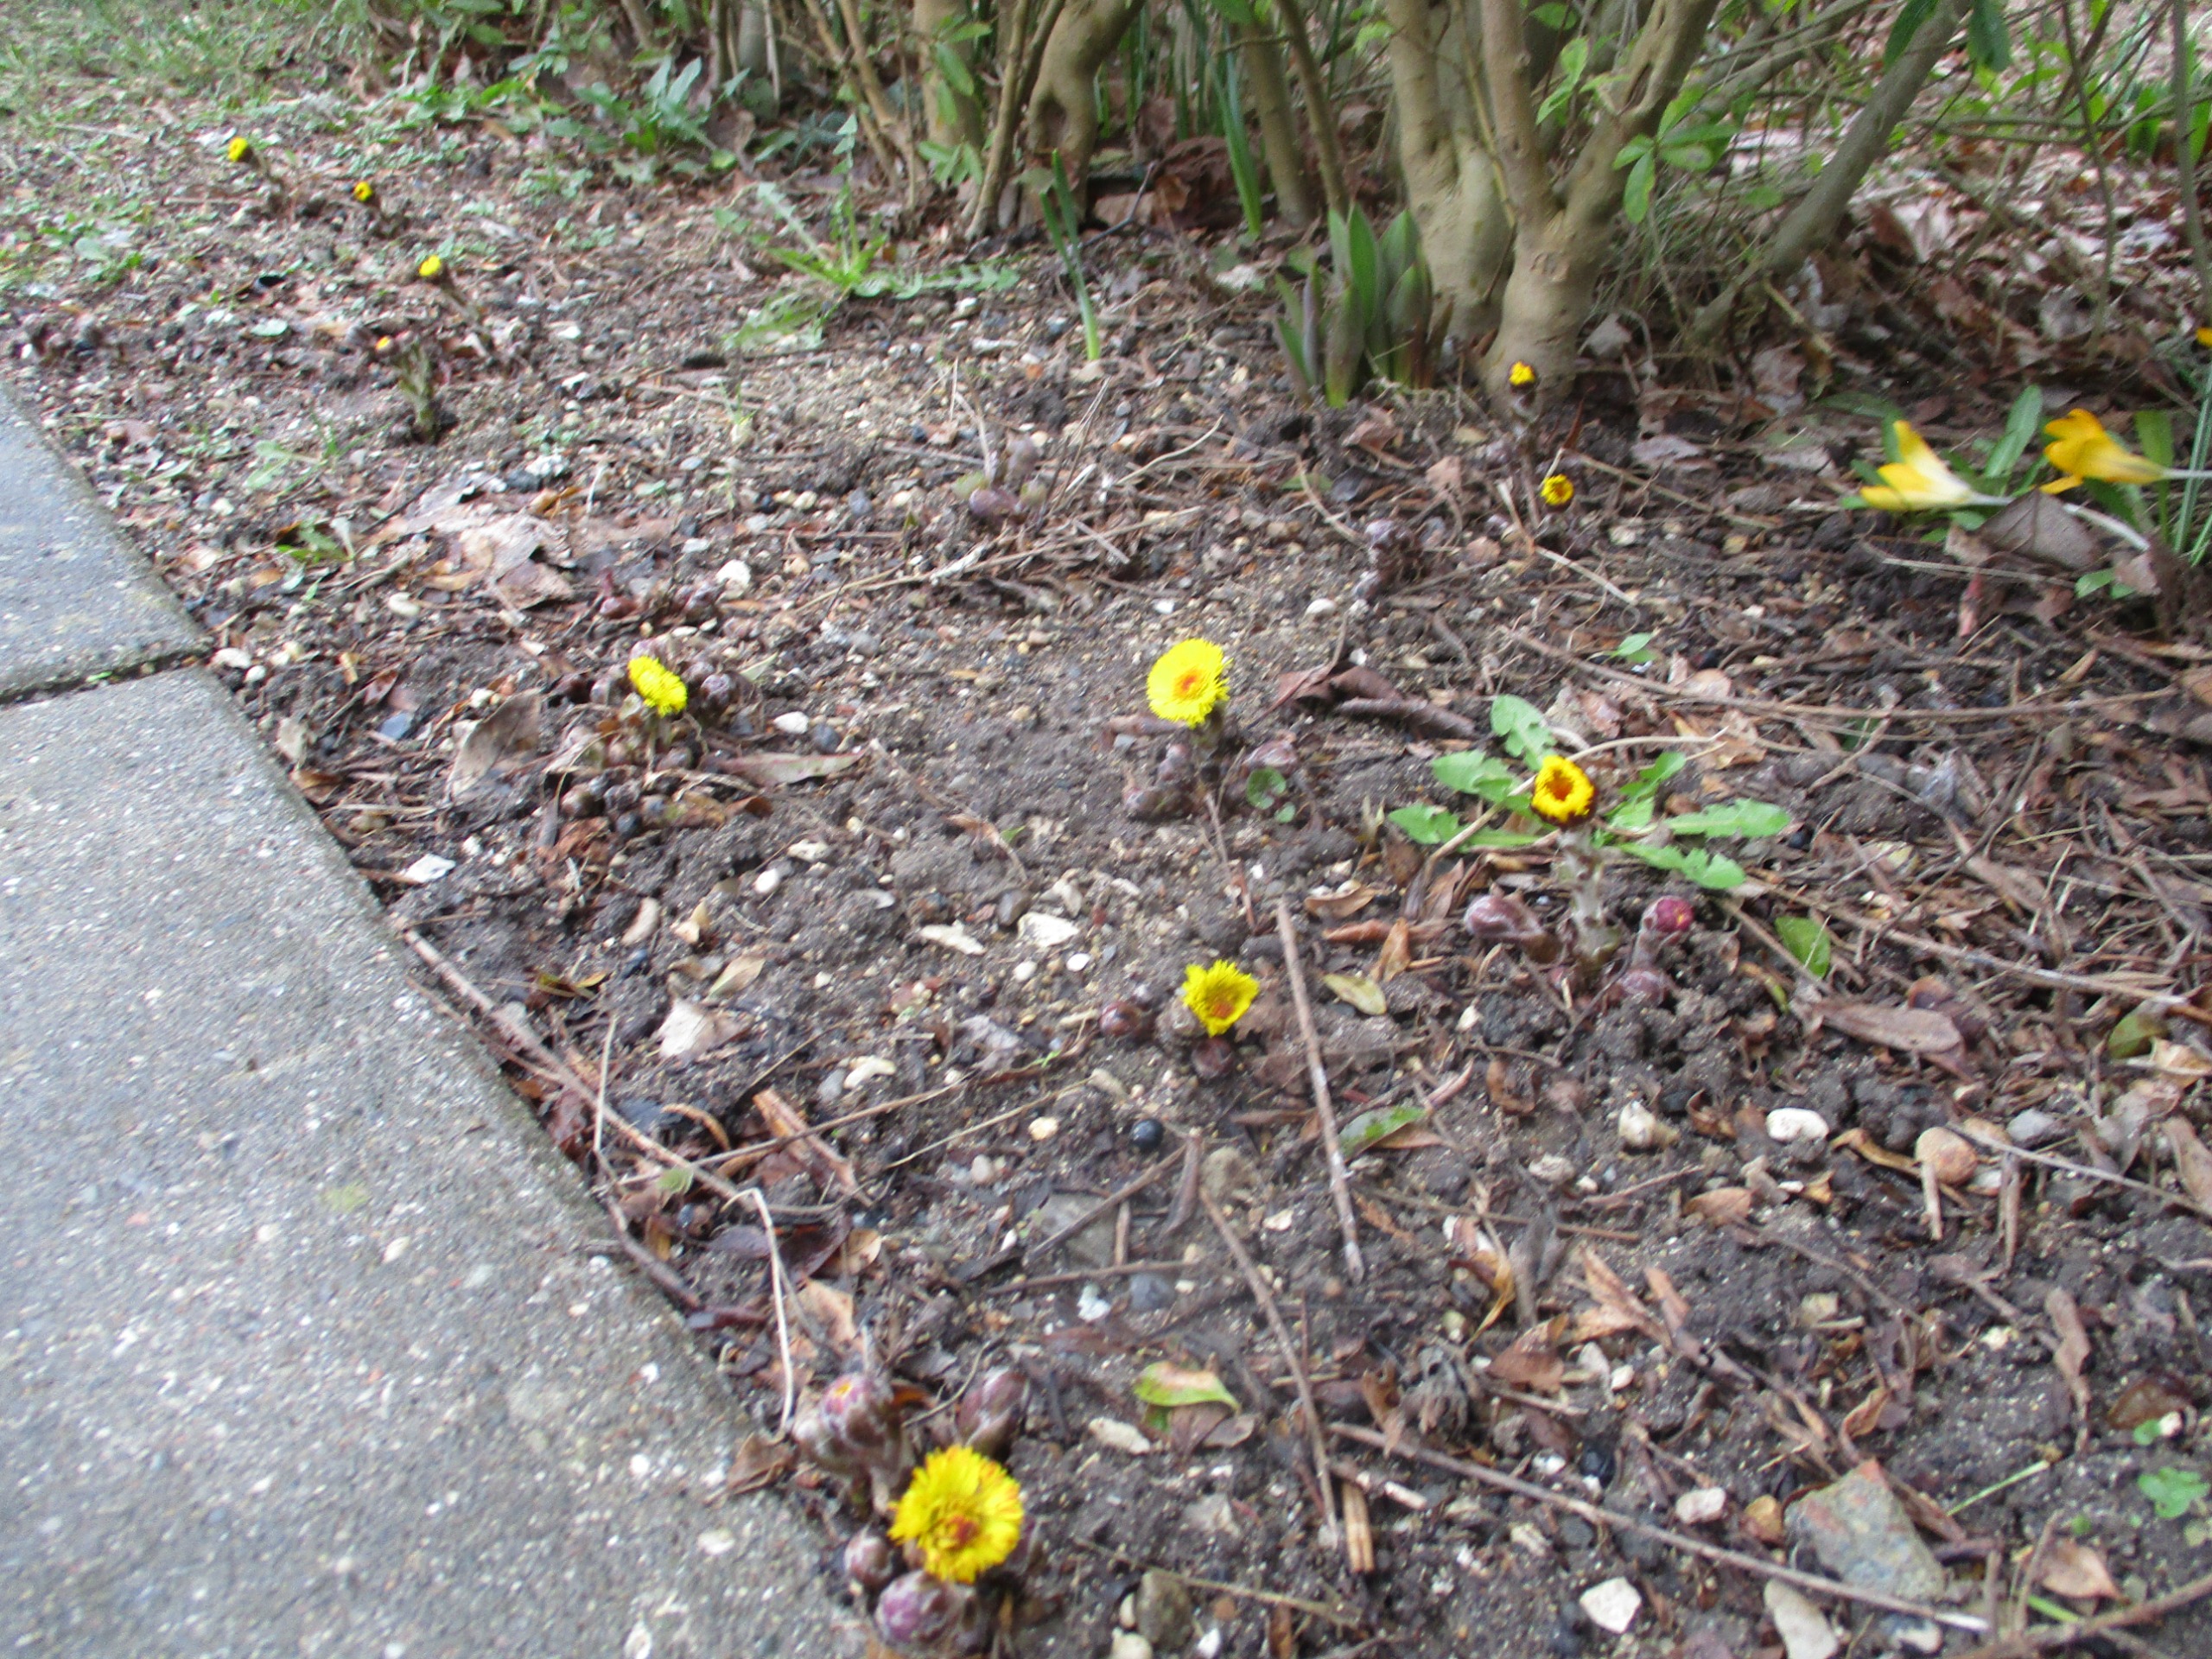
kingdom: Plantae
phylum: Tracheophyta
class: Magnoliopsida
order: Asterales
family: Asteraceae
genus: Tussilago
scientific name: Tussilago farfara
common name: Følfod
